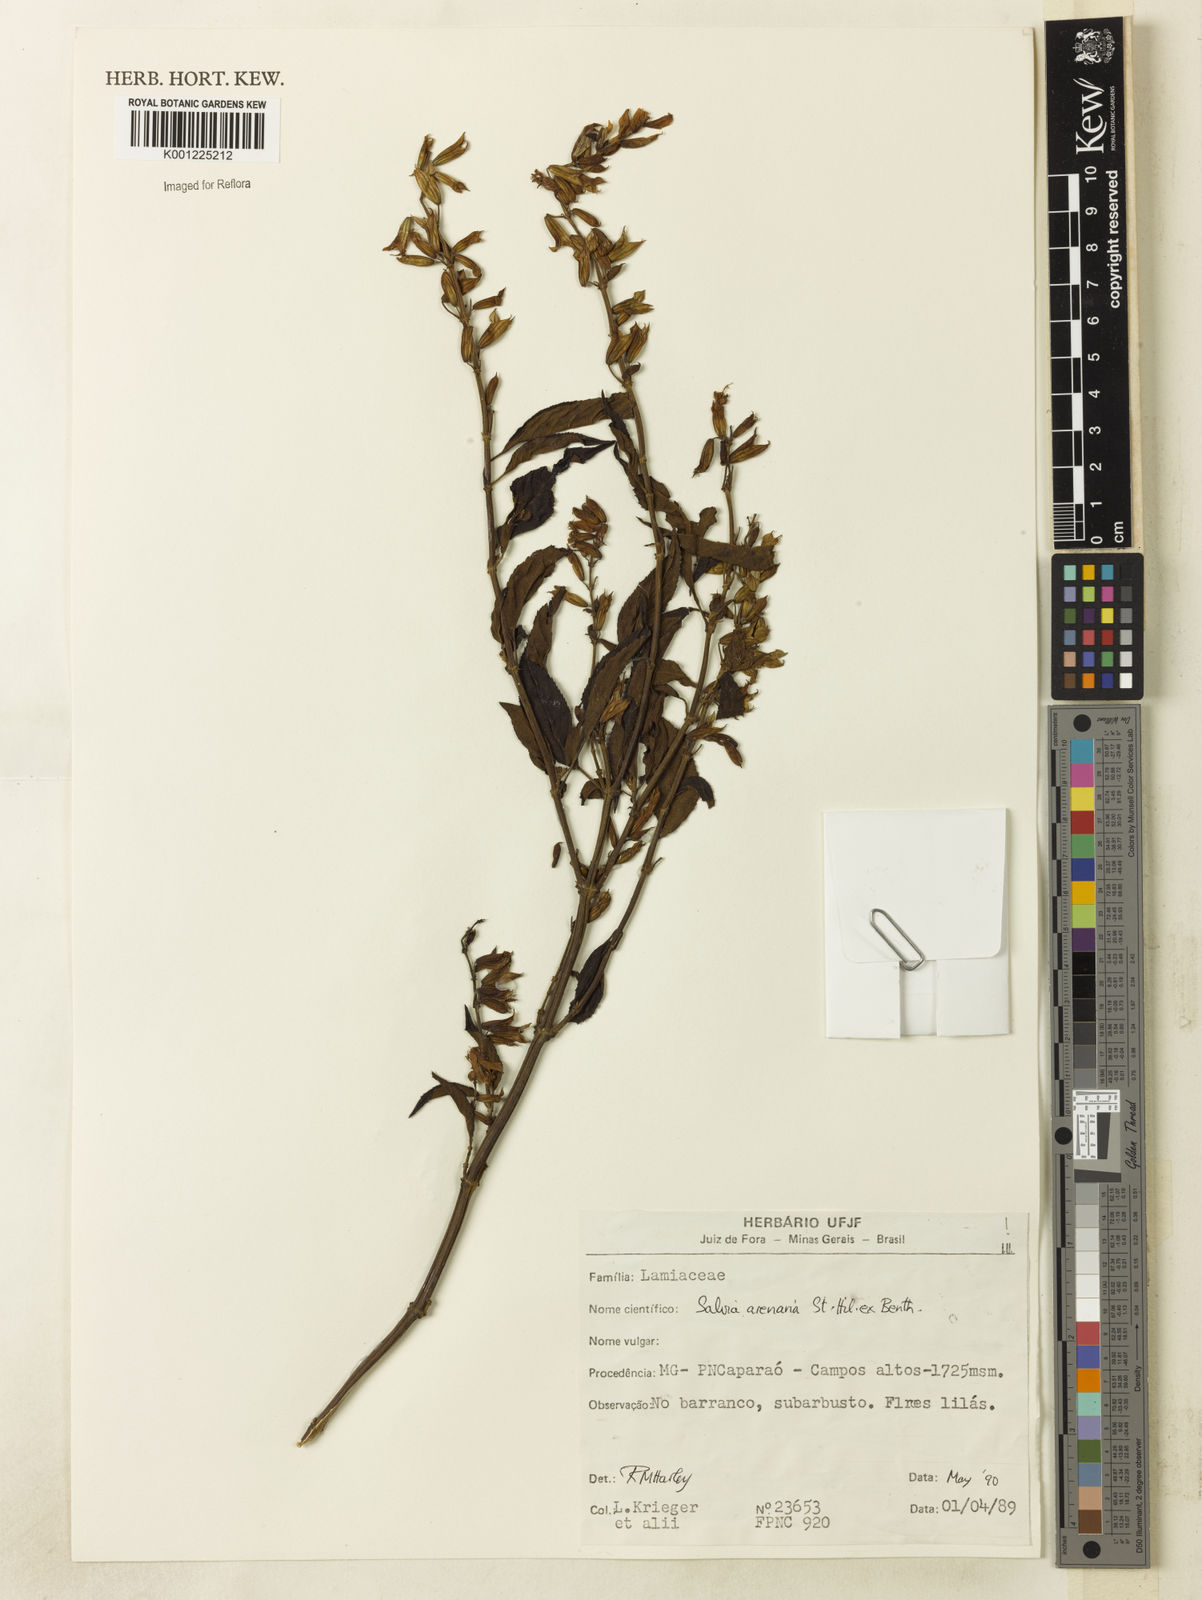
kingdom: Plantae
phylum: Tracheophyta
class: Magnoliopsida
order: Lamiales
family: Lamiaceae
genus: Salvia
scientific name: Salvia arenaria
